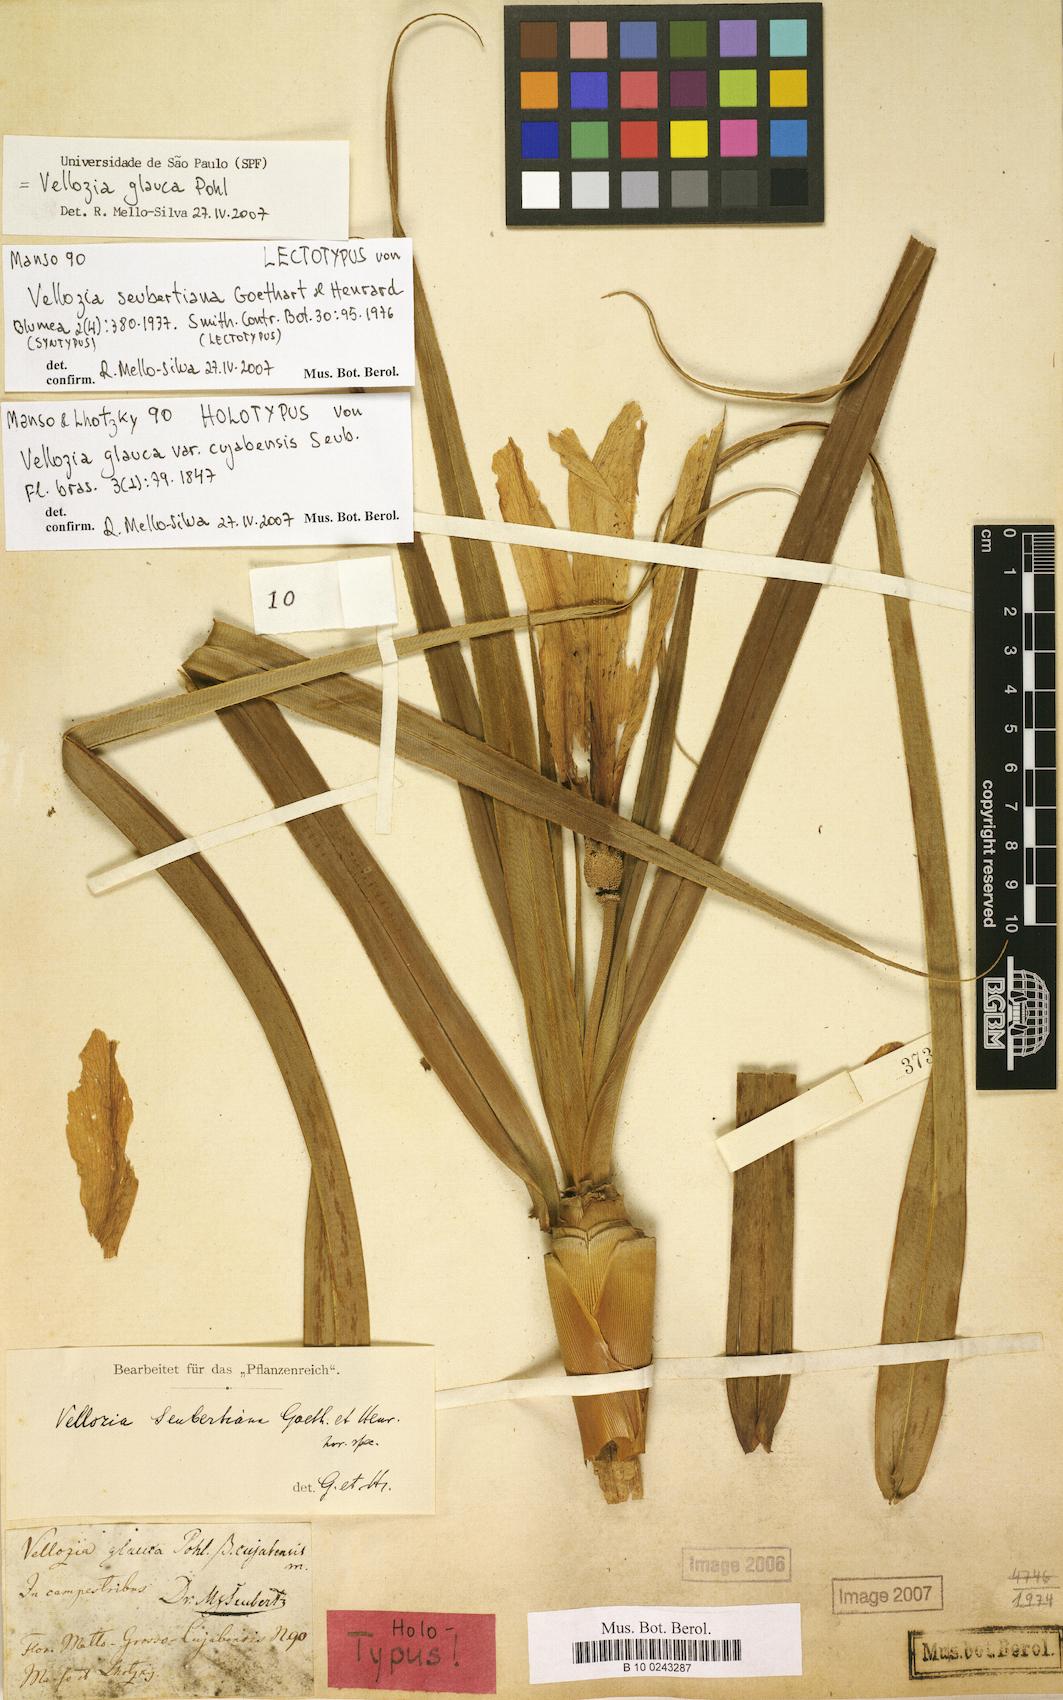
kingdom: Plantae
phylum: Tracheophyta
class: Liliopsida
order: Pandanales
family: Velloziaceae
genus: Vellozia
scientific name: Vellozia seubertiana
